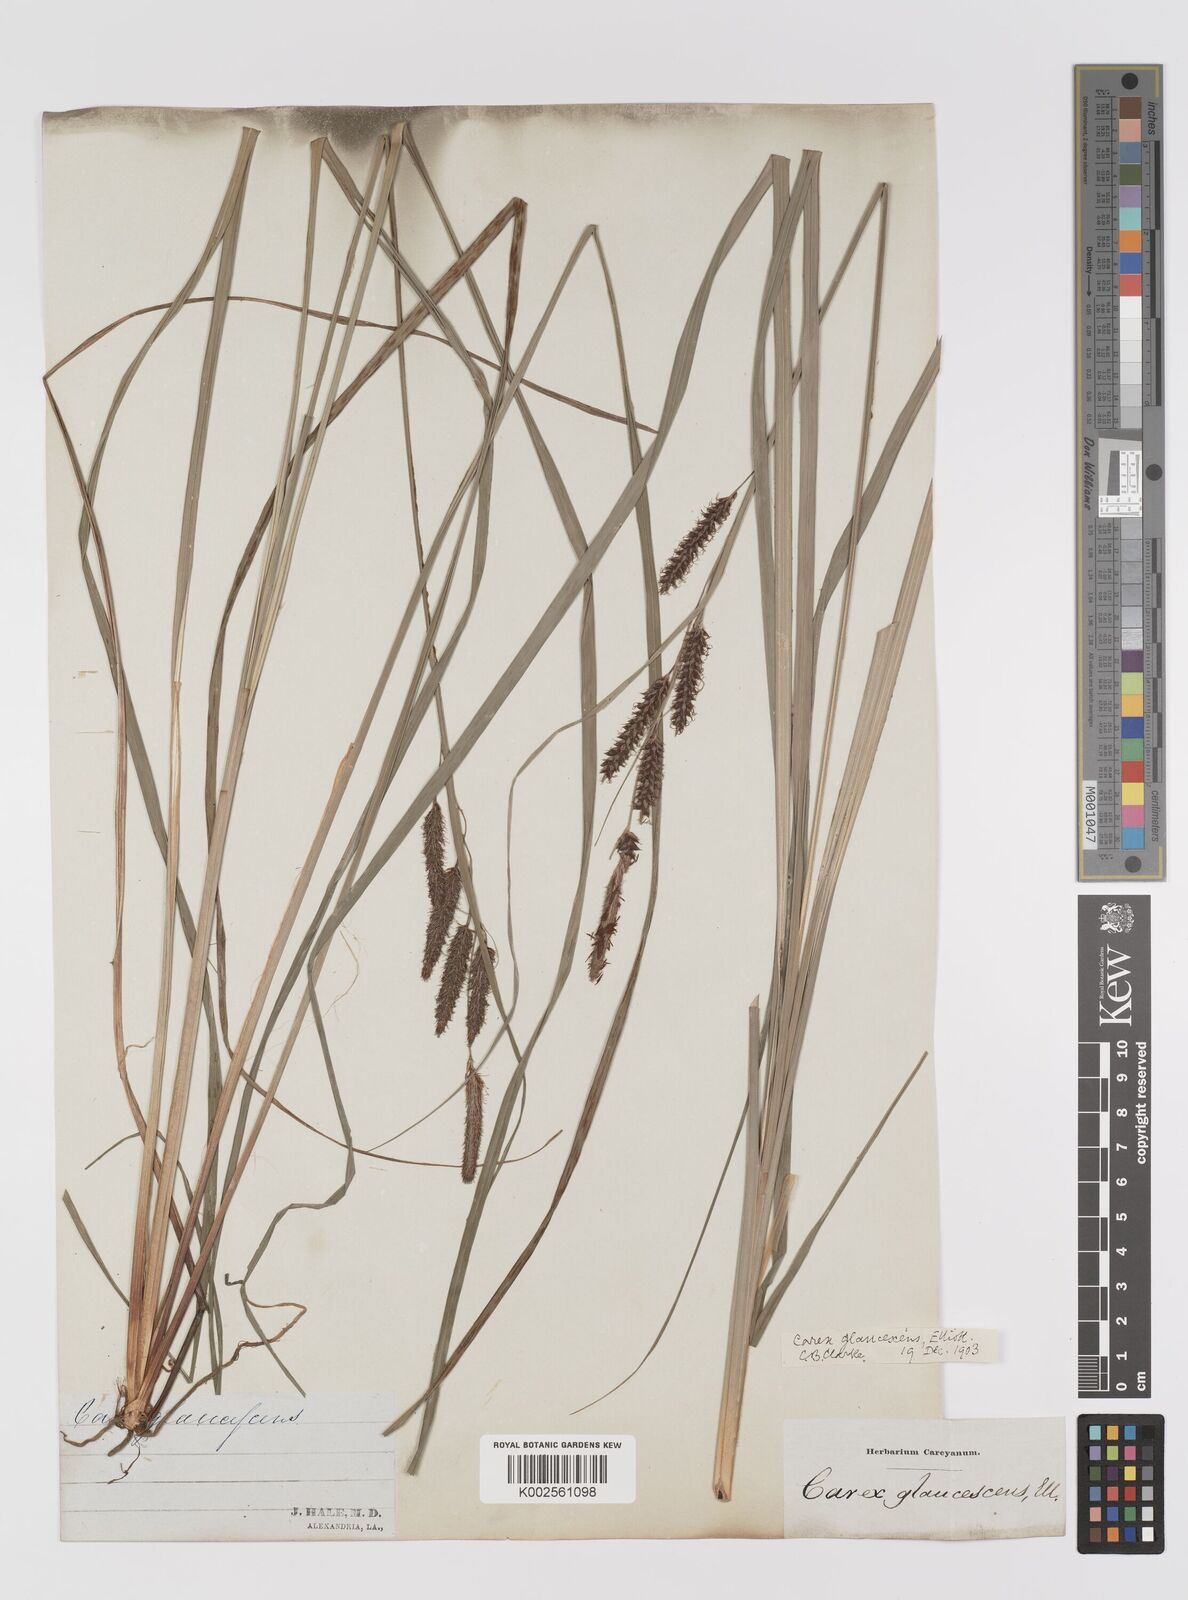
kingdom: Plantae
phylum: Tracheophyta
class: Liliopsida
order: Poales
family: Cyperaceae
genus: Carex
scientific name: Carex glaucescens
